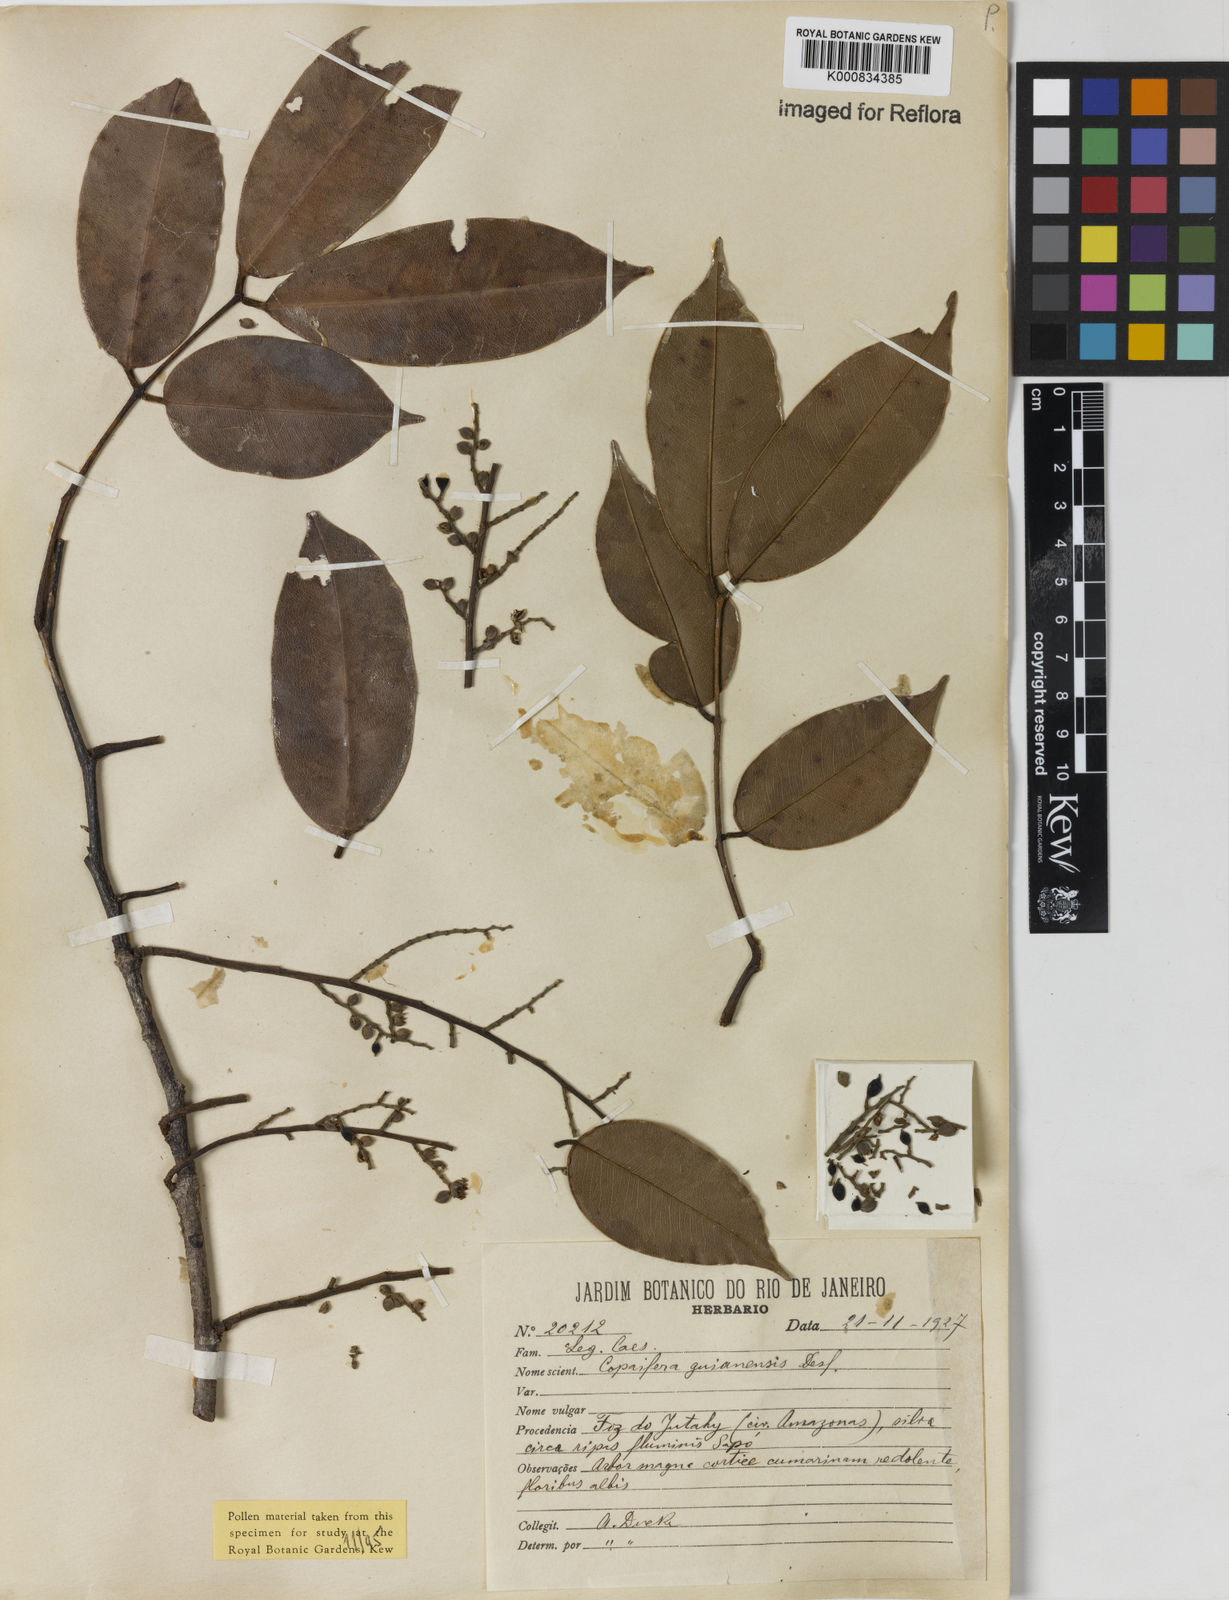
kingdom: Plantae
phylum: Tracheophyta
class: Magnoliopsida
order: Fabales
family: Fabaceae
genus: Copaifera
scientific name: Copaifera guianensis
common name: Copaiba
